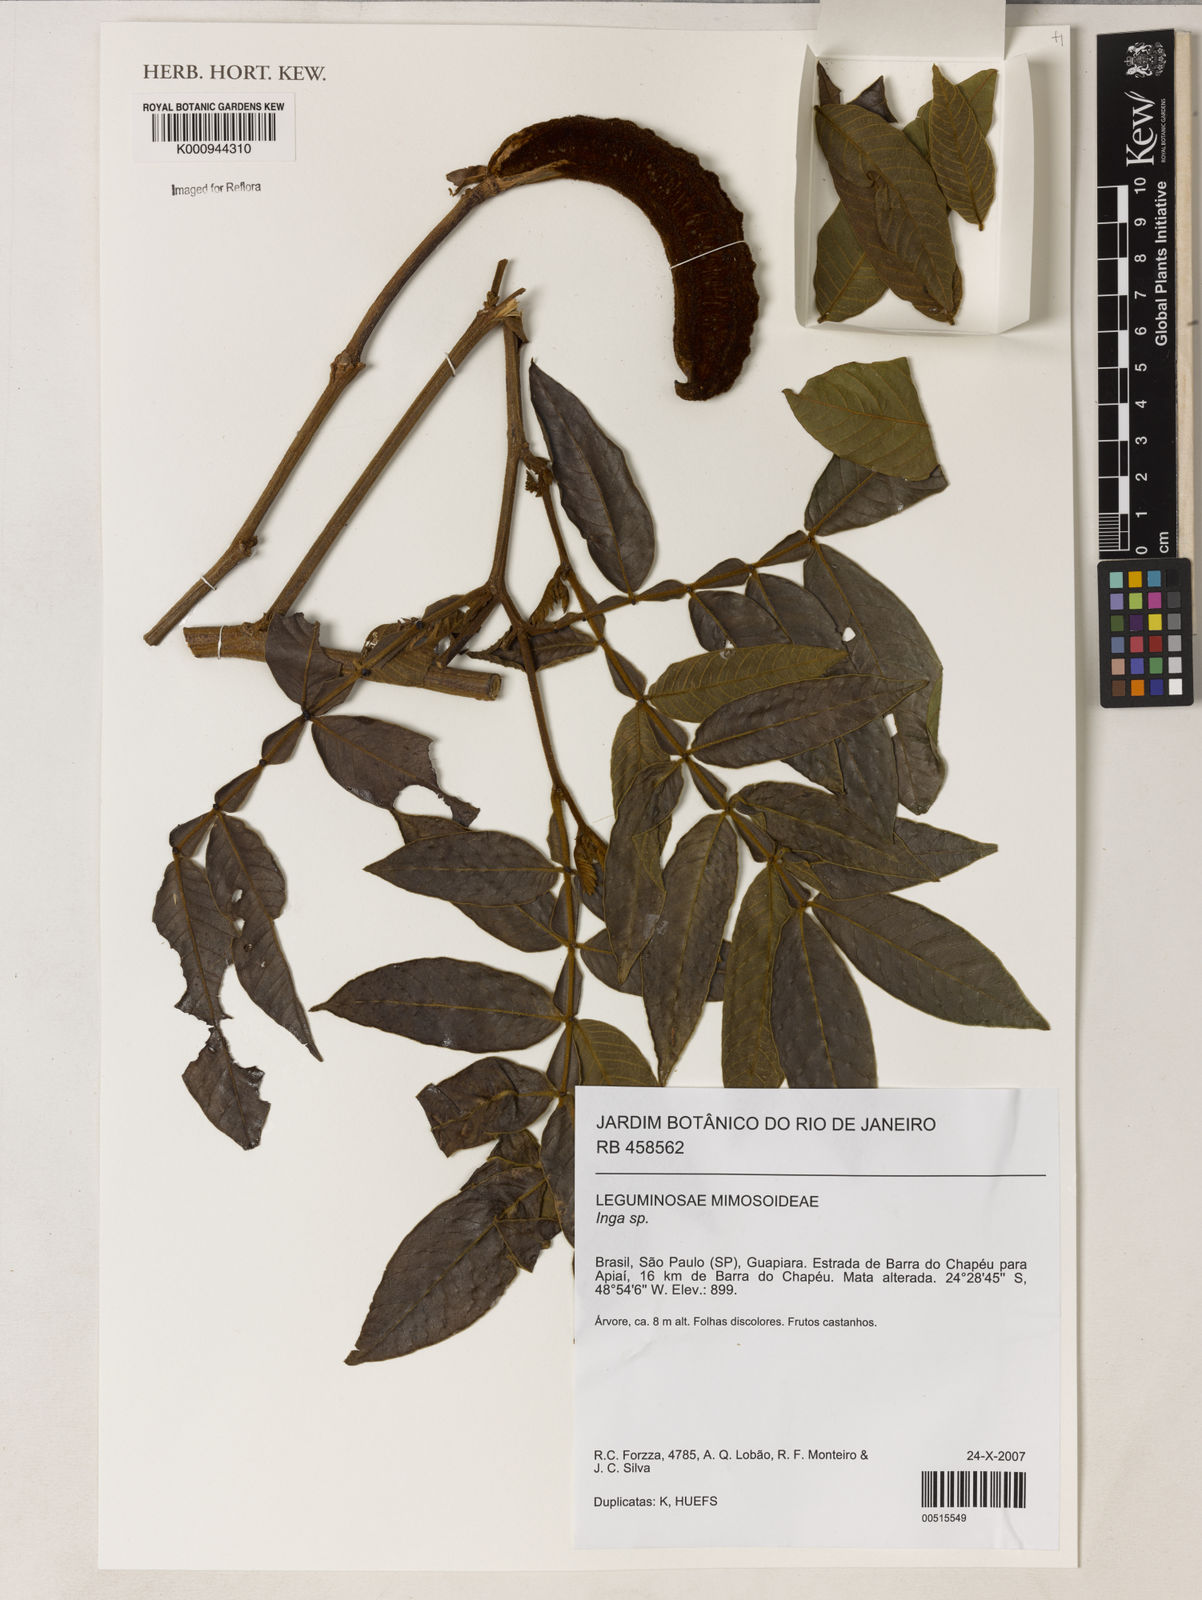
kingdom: Plantae
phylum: Tracheophyta
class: Magnoliopsida
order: Fabales
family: Fabaceae
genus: Inga
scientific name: Inga
